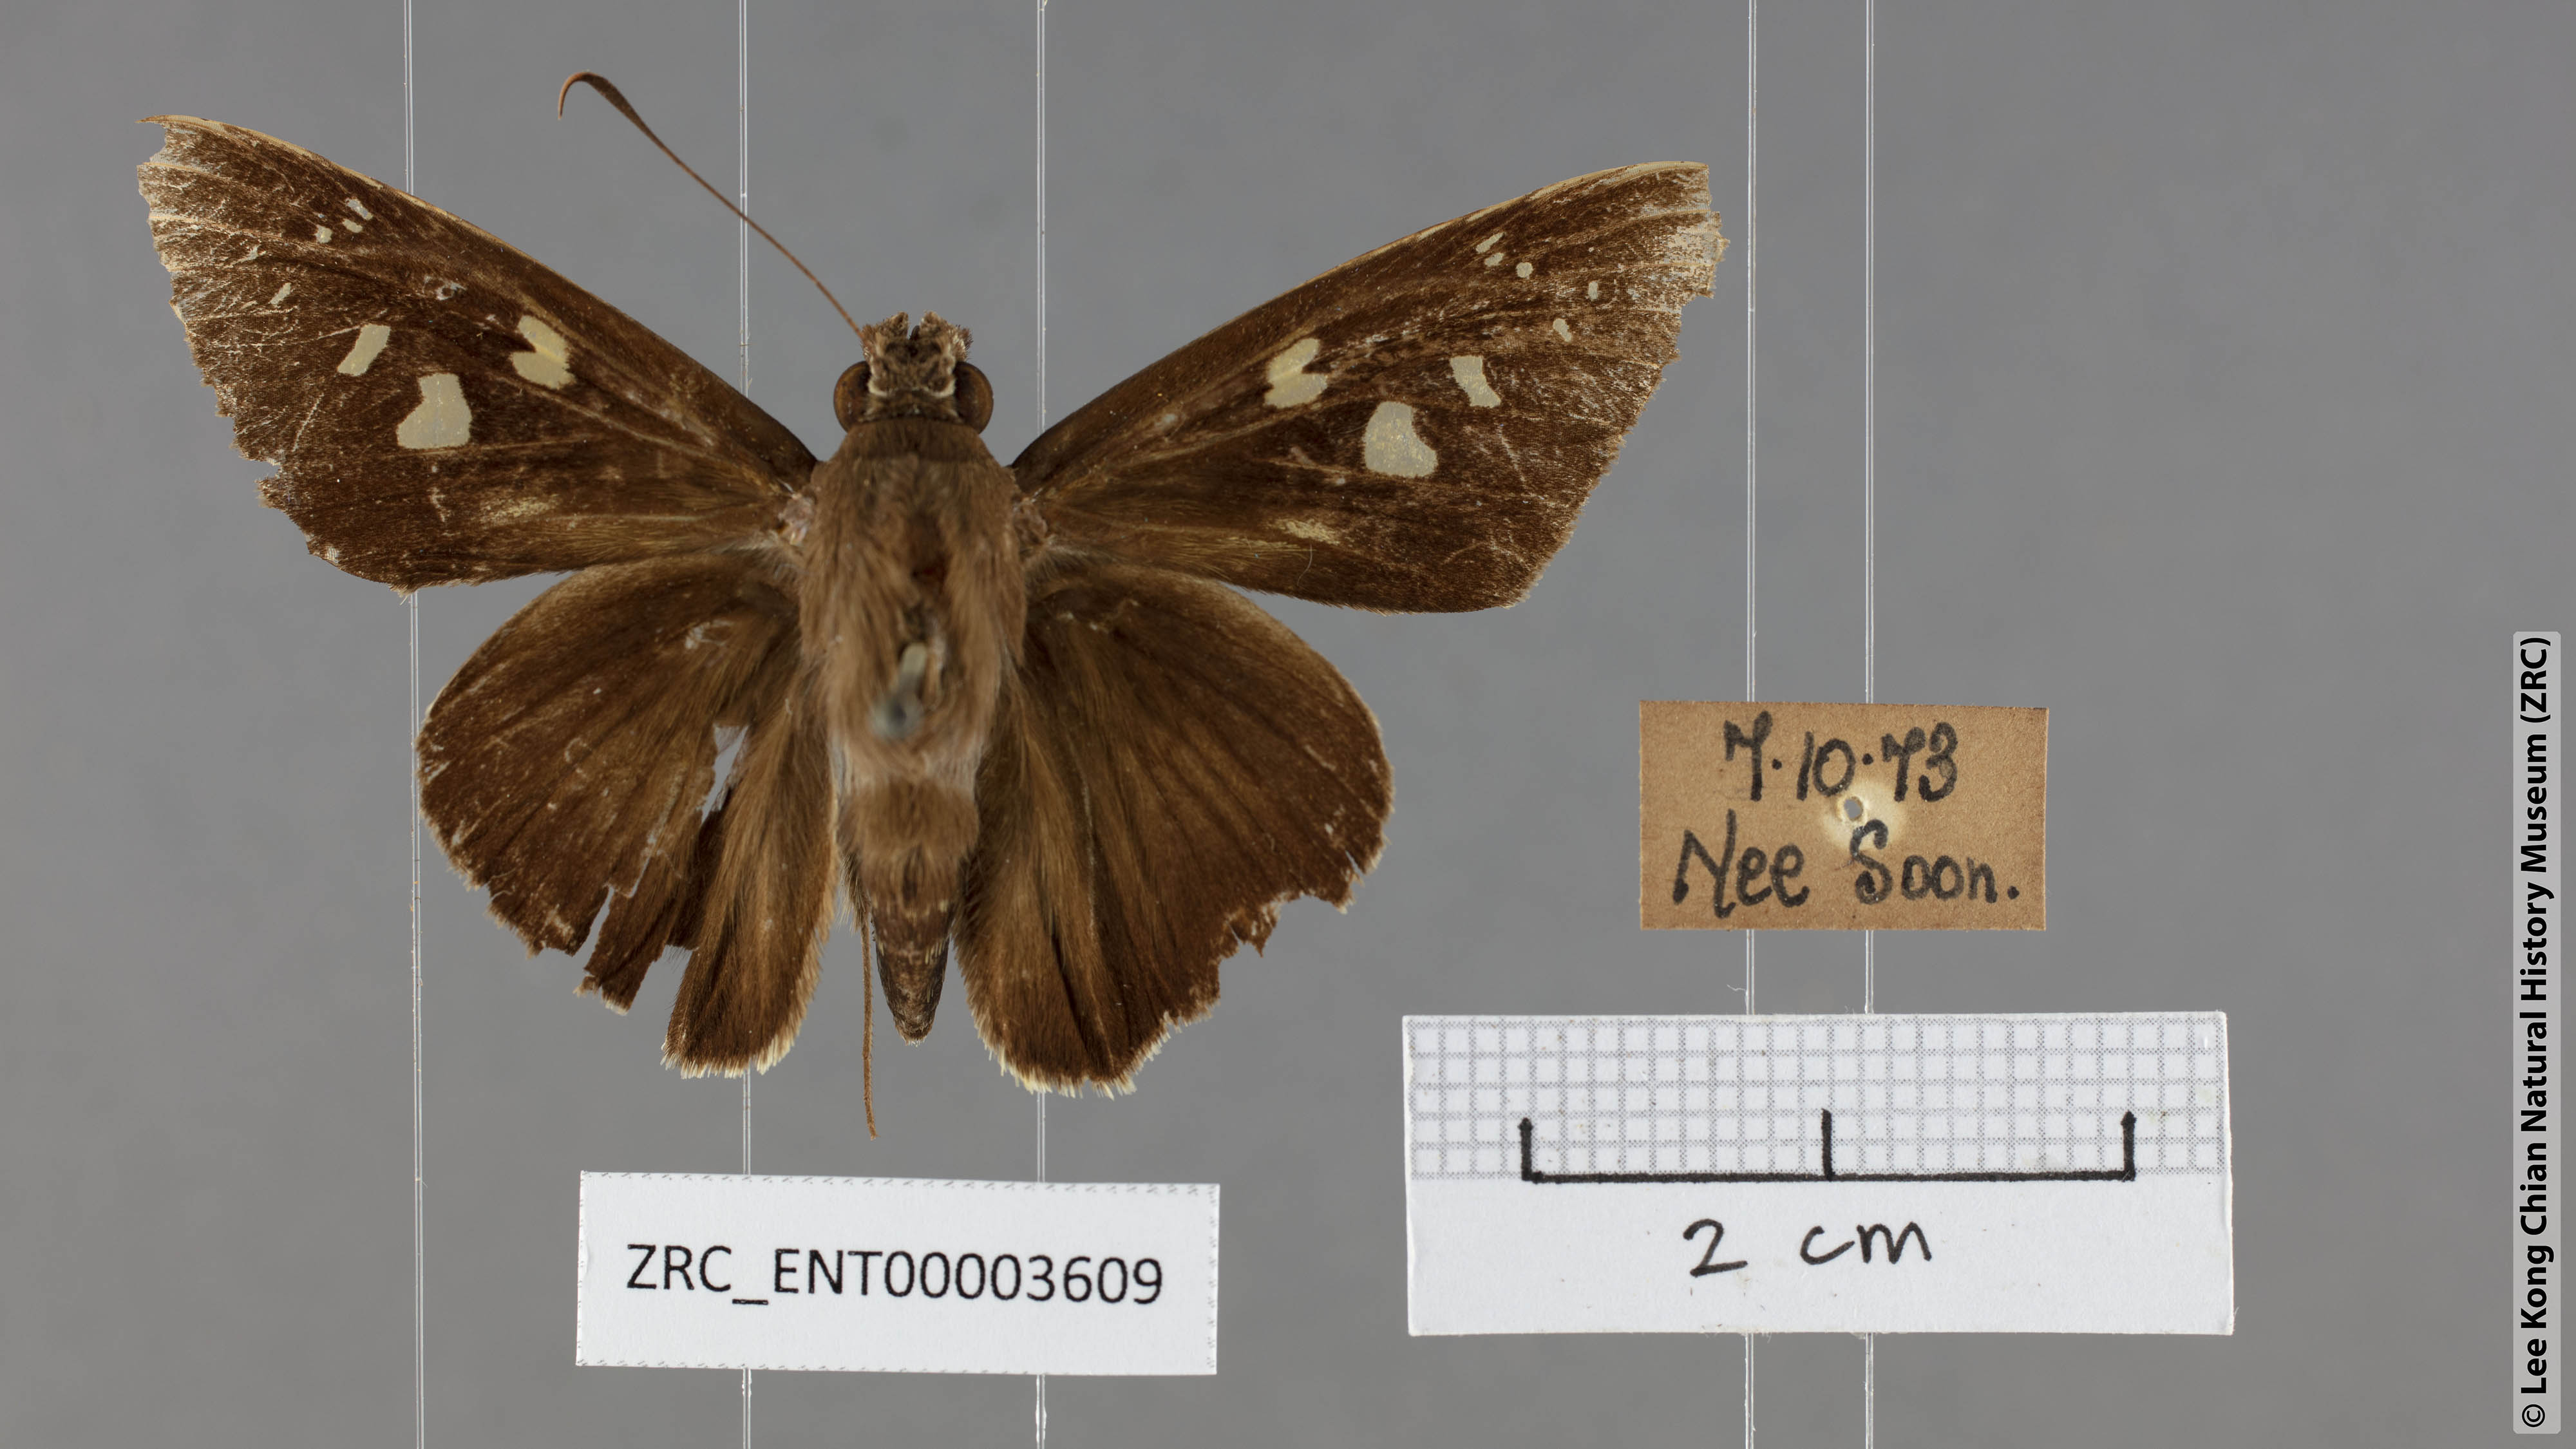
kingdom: Animalia
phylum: Arthropoda
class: Insecta
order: Lepidoptera
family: Hesperiidae
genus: Unkana
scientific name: Unkana ambasa
